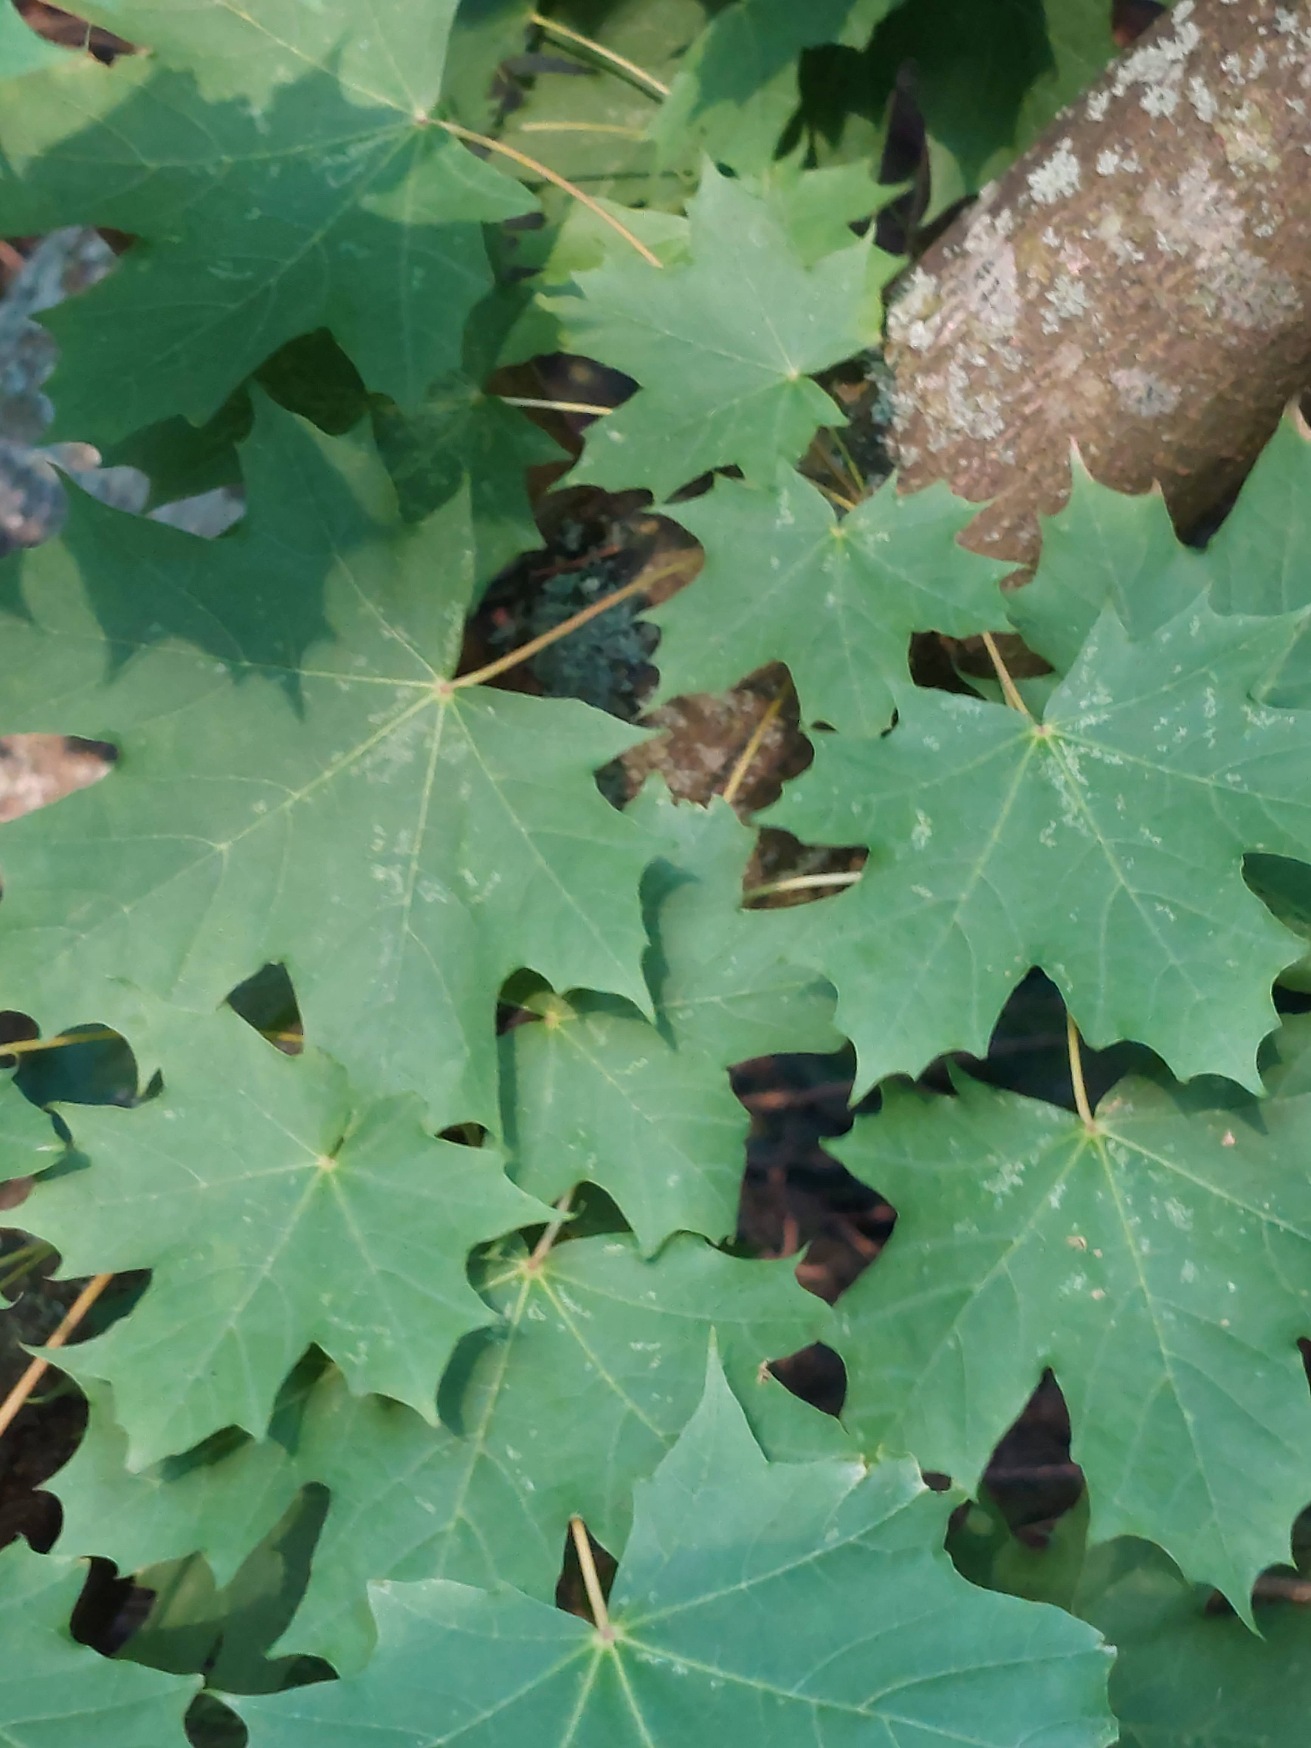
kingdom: Plantae
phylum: Tracheophyta
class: Magnoliopsida
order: Sapindales
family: Sapindaceae
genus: Acer
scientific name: Acer platanoides
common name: Spids-løn
